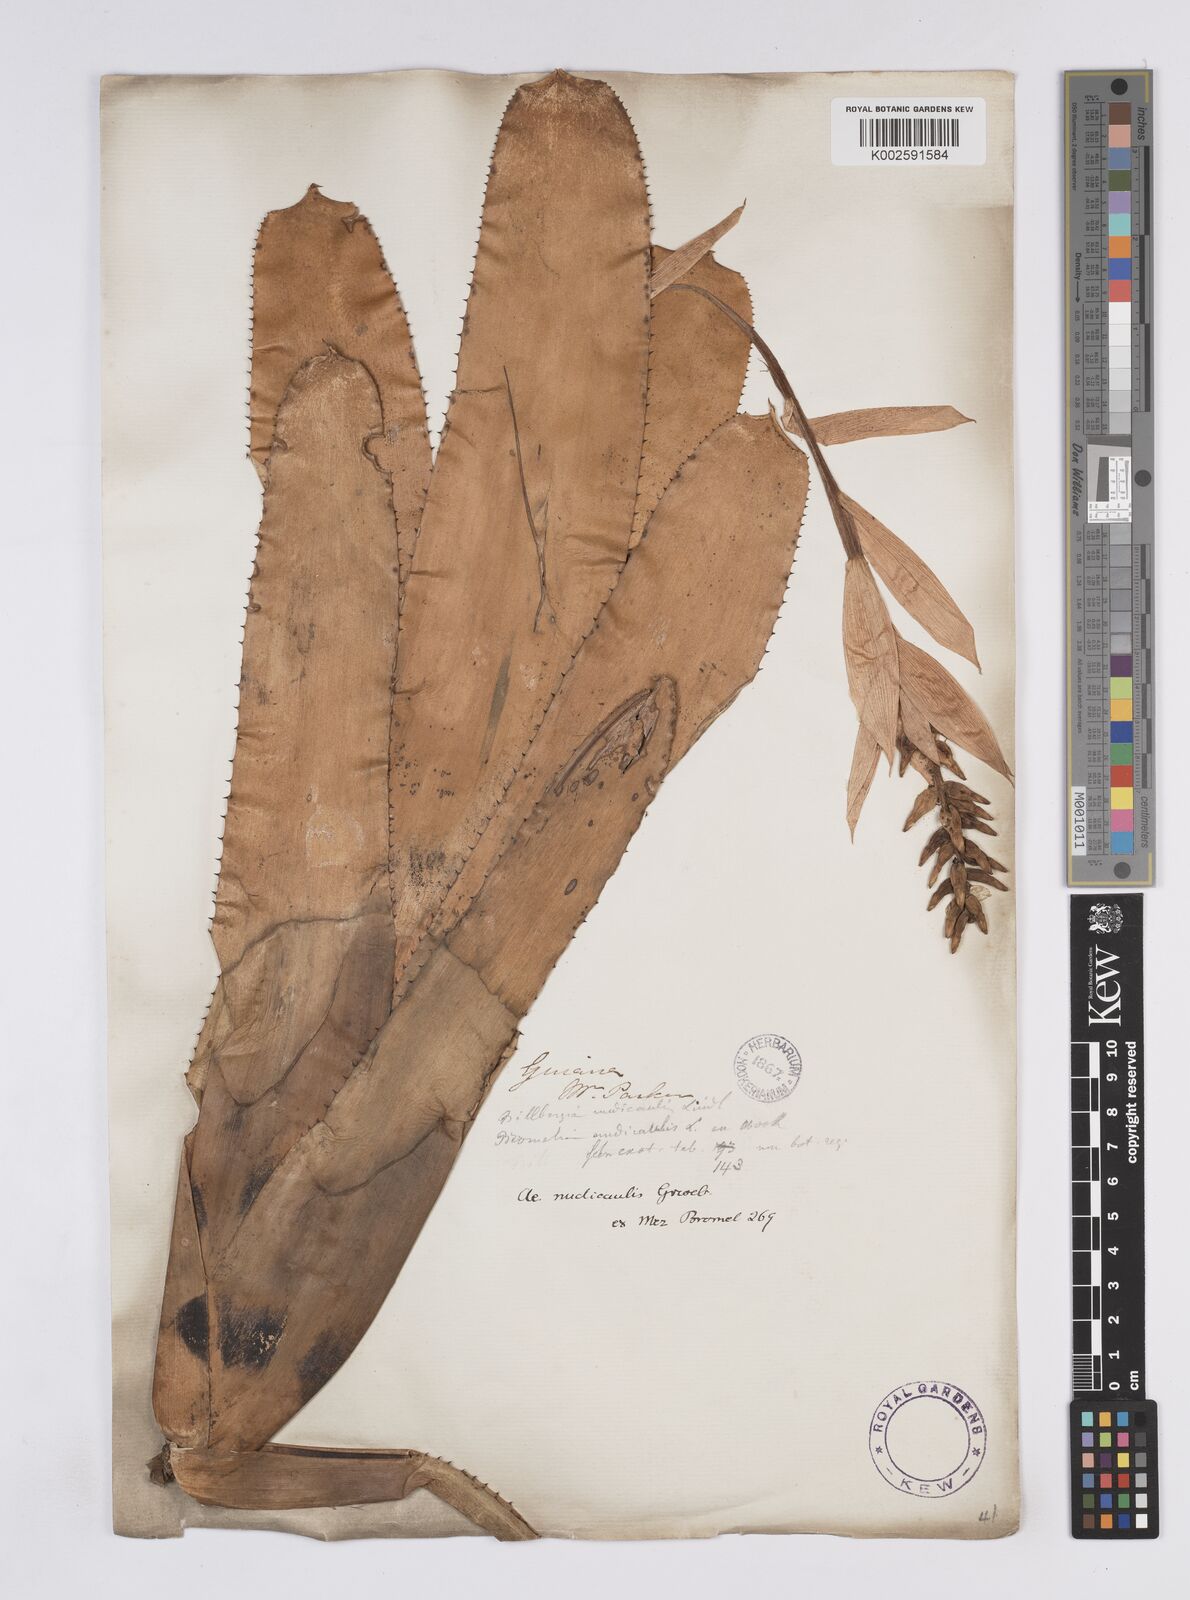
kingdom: Plantae
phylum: Tracheophyta
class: Liliopsida
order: Poales
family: Bromeliaceae
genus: Aechmea
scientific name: Aechmea nudicaulis
